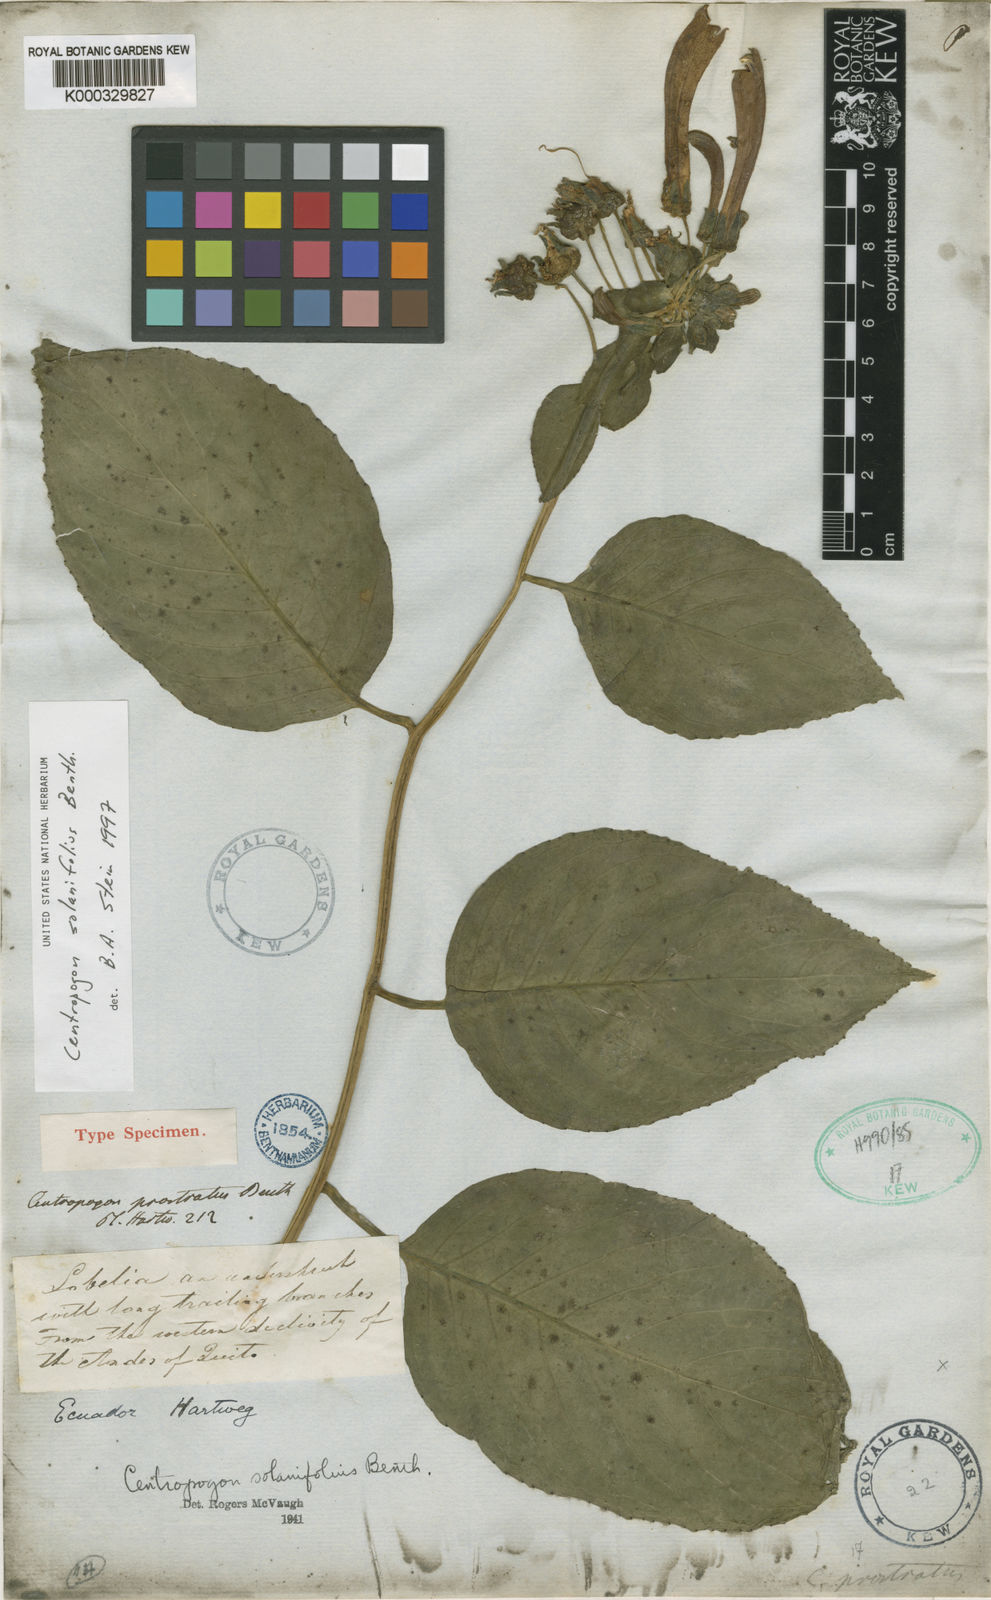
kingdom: Plantae
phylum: Tracheophyta
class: Magnoliopsida
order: Asterales
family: Campanulaceae
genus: Centropogon
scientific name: Centropogon solanifolius
